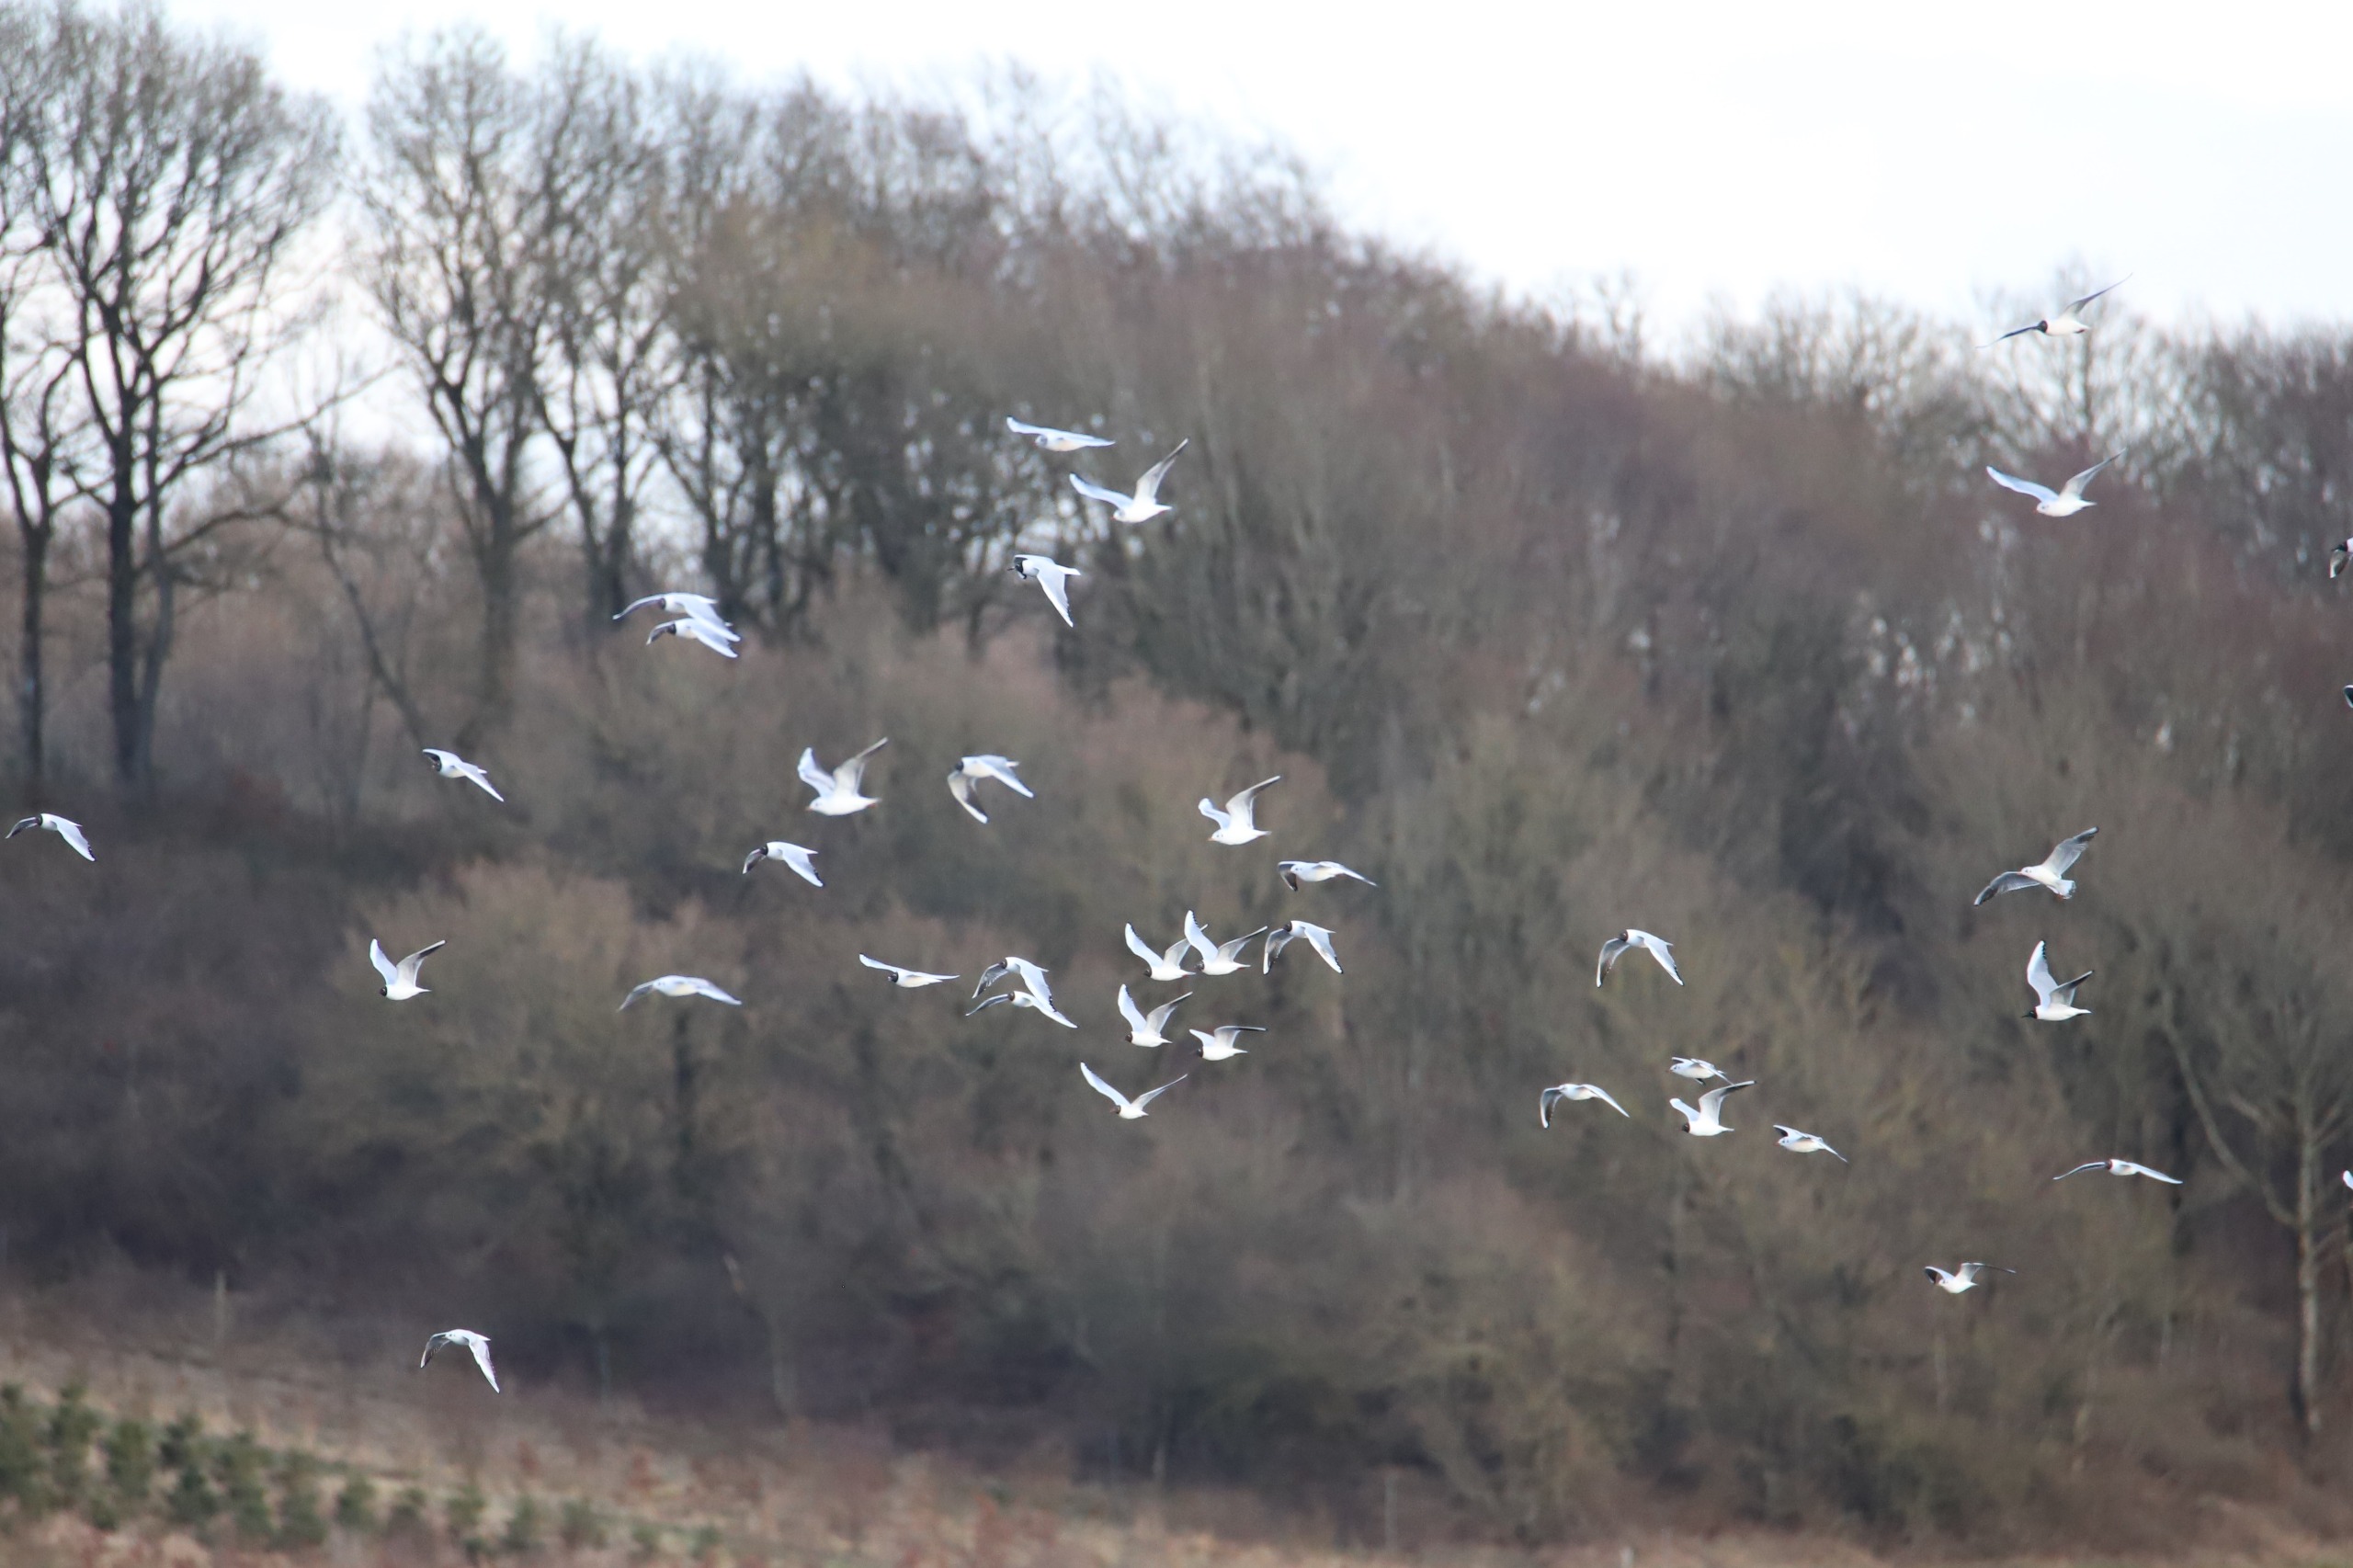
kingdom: Animalia
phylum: Chordata
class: Aves
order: Charadriiformes
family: Laridae
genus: Chroicocephalus
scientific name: Chroicocephalus ridibundus
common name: Hættemåge
